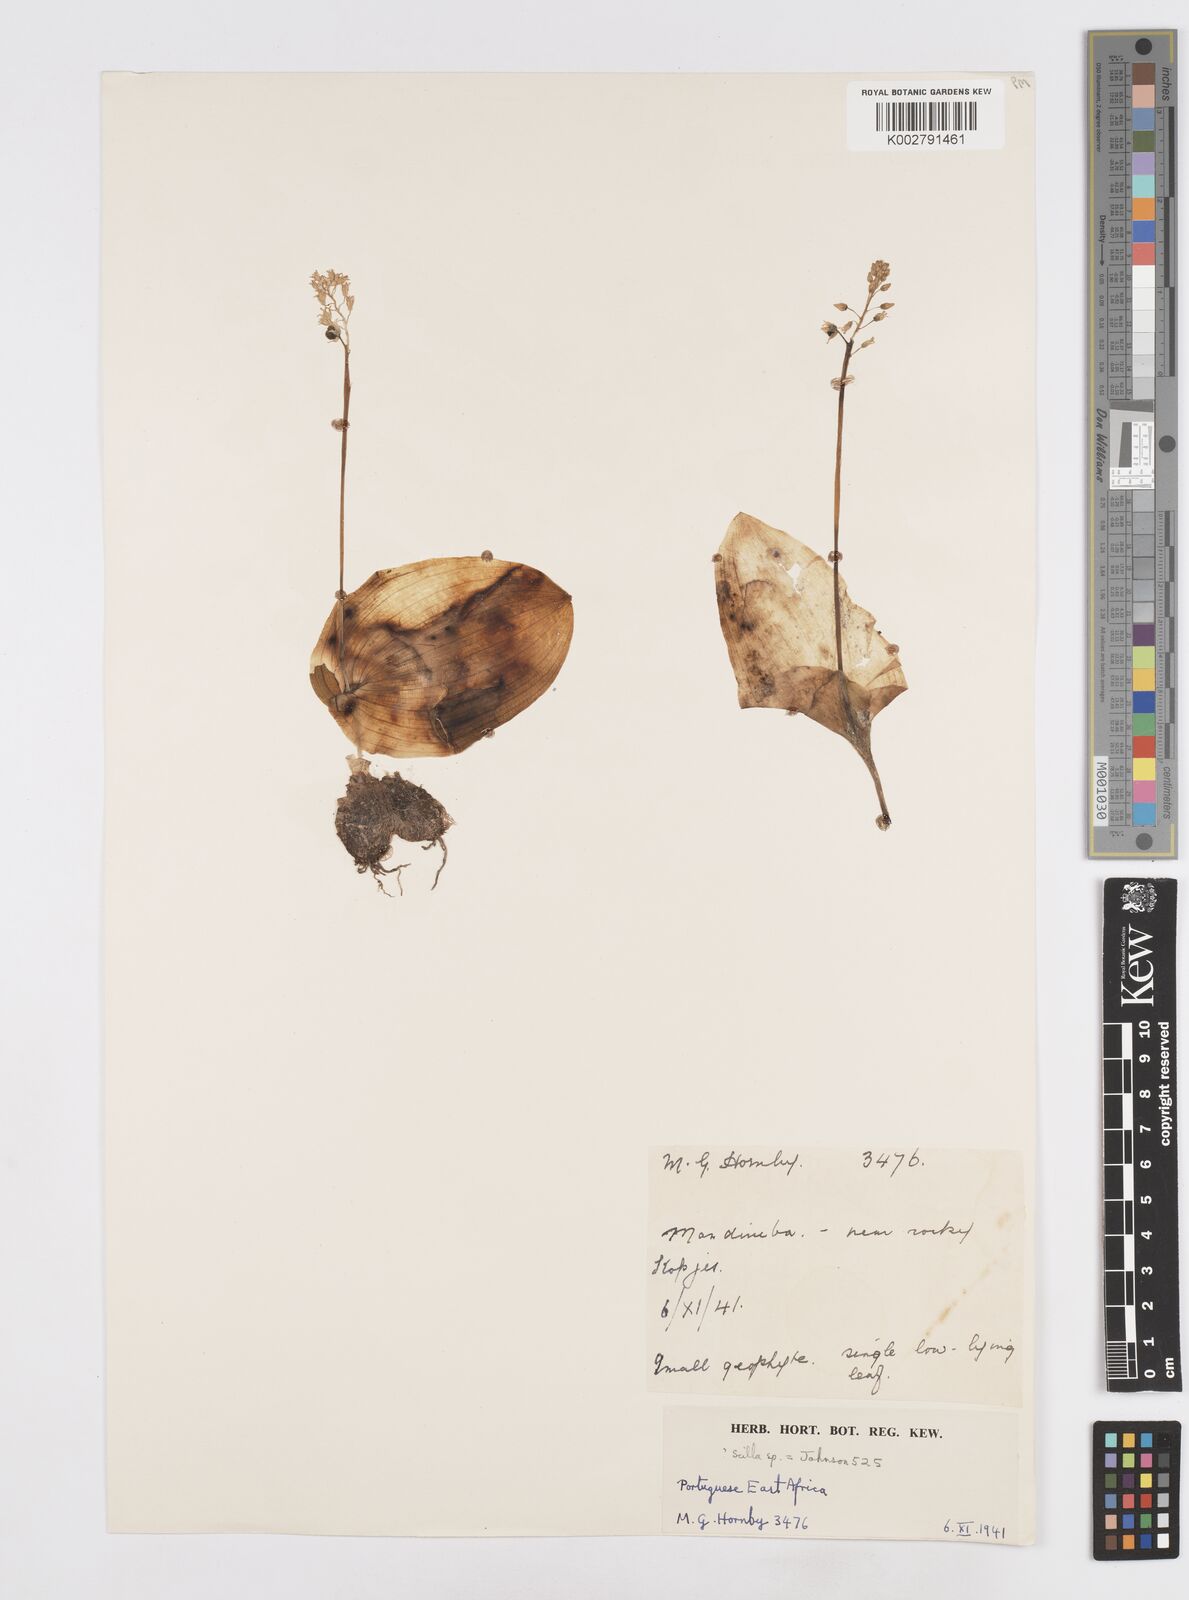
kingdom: Plantae
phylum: Tracheophyta
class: Liliopsida
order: Asparagales
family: Asparagaceae
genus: Scilla
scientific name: Scilla
